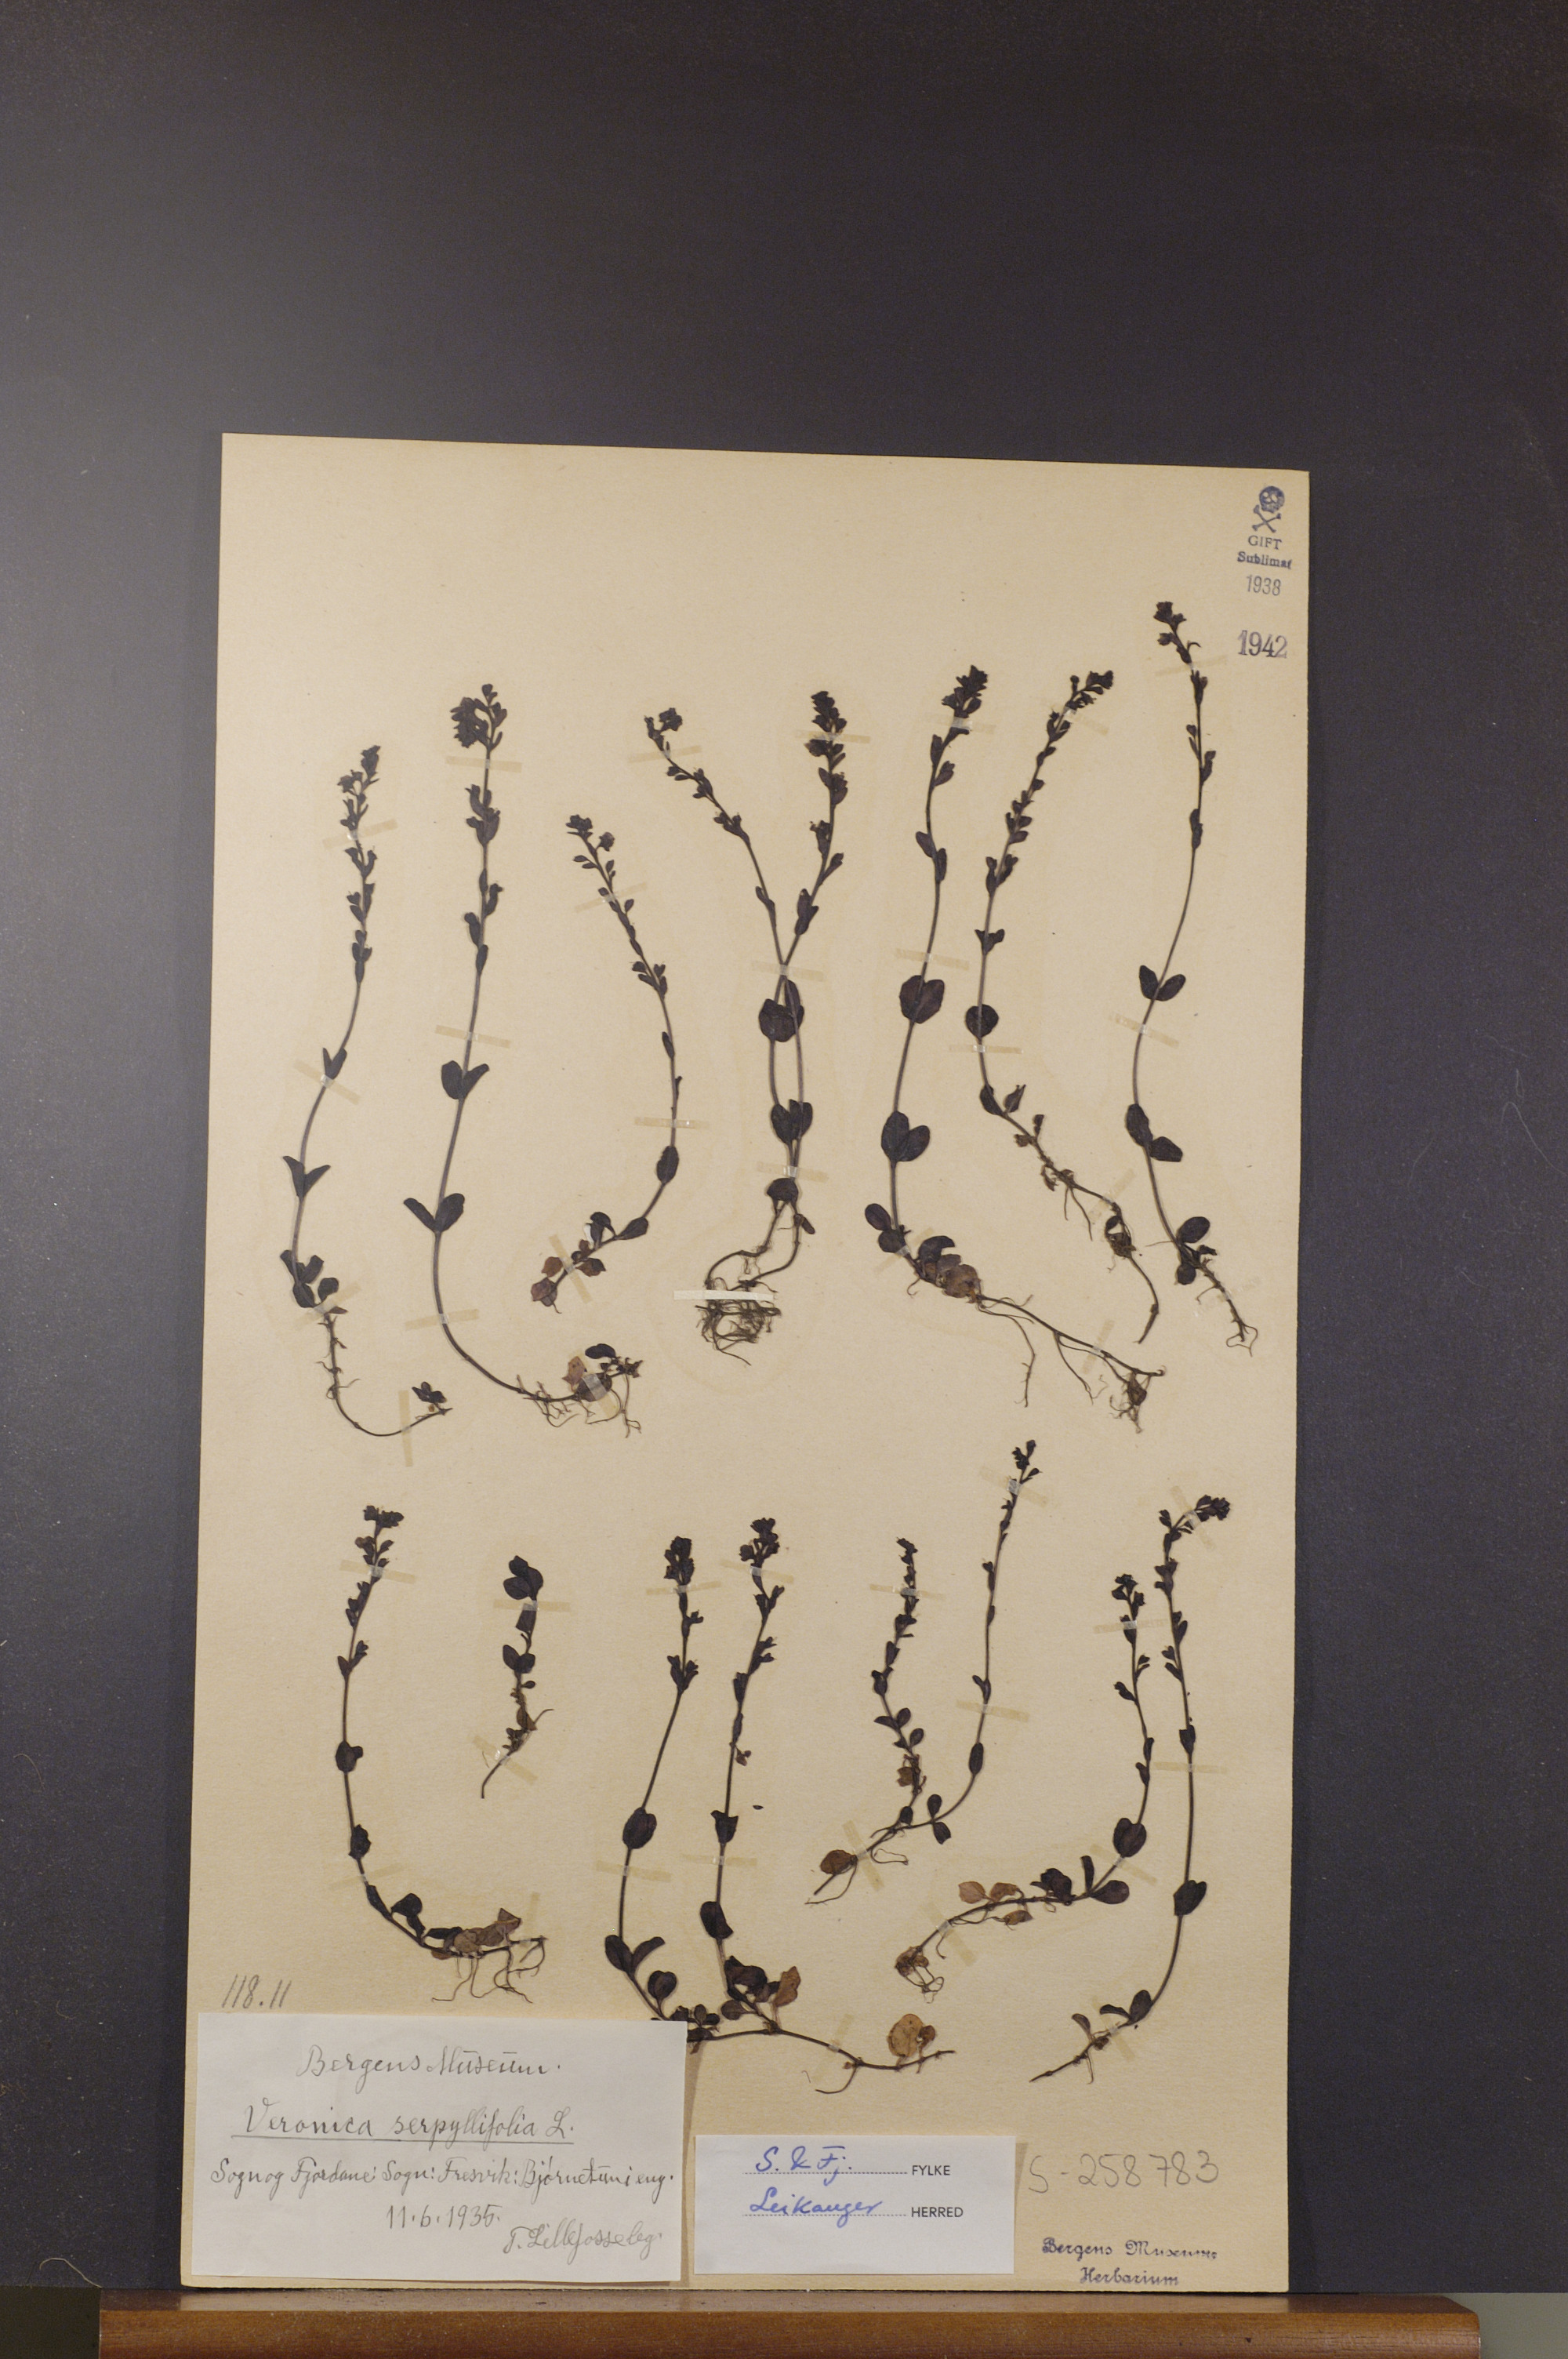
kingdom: Plantae
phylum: Tracheophyta
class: Magnoliopsida
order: Lamiales
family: Plantaginaceae
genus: Veronica
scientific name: Veronica serpyllifolia
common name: Thyme-leaved speedwell
